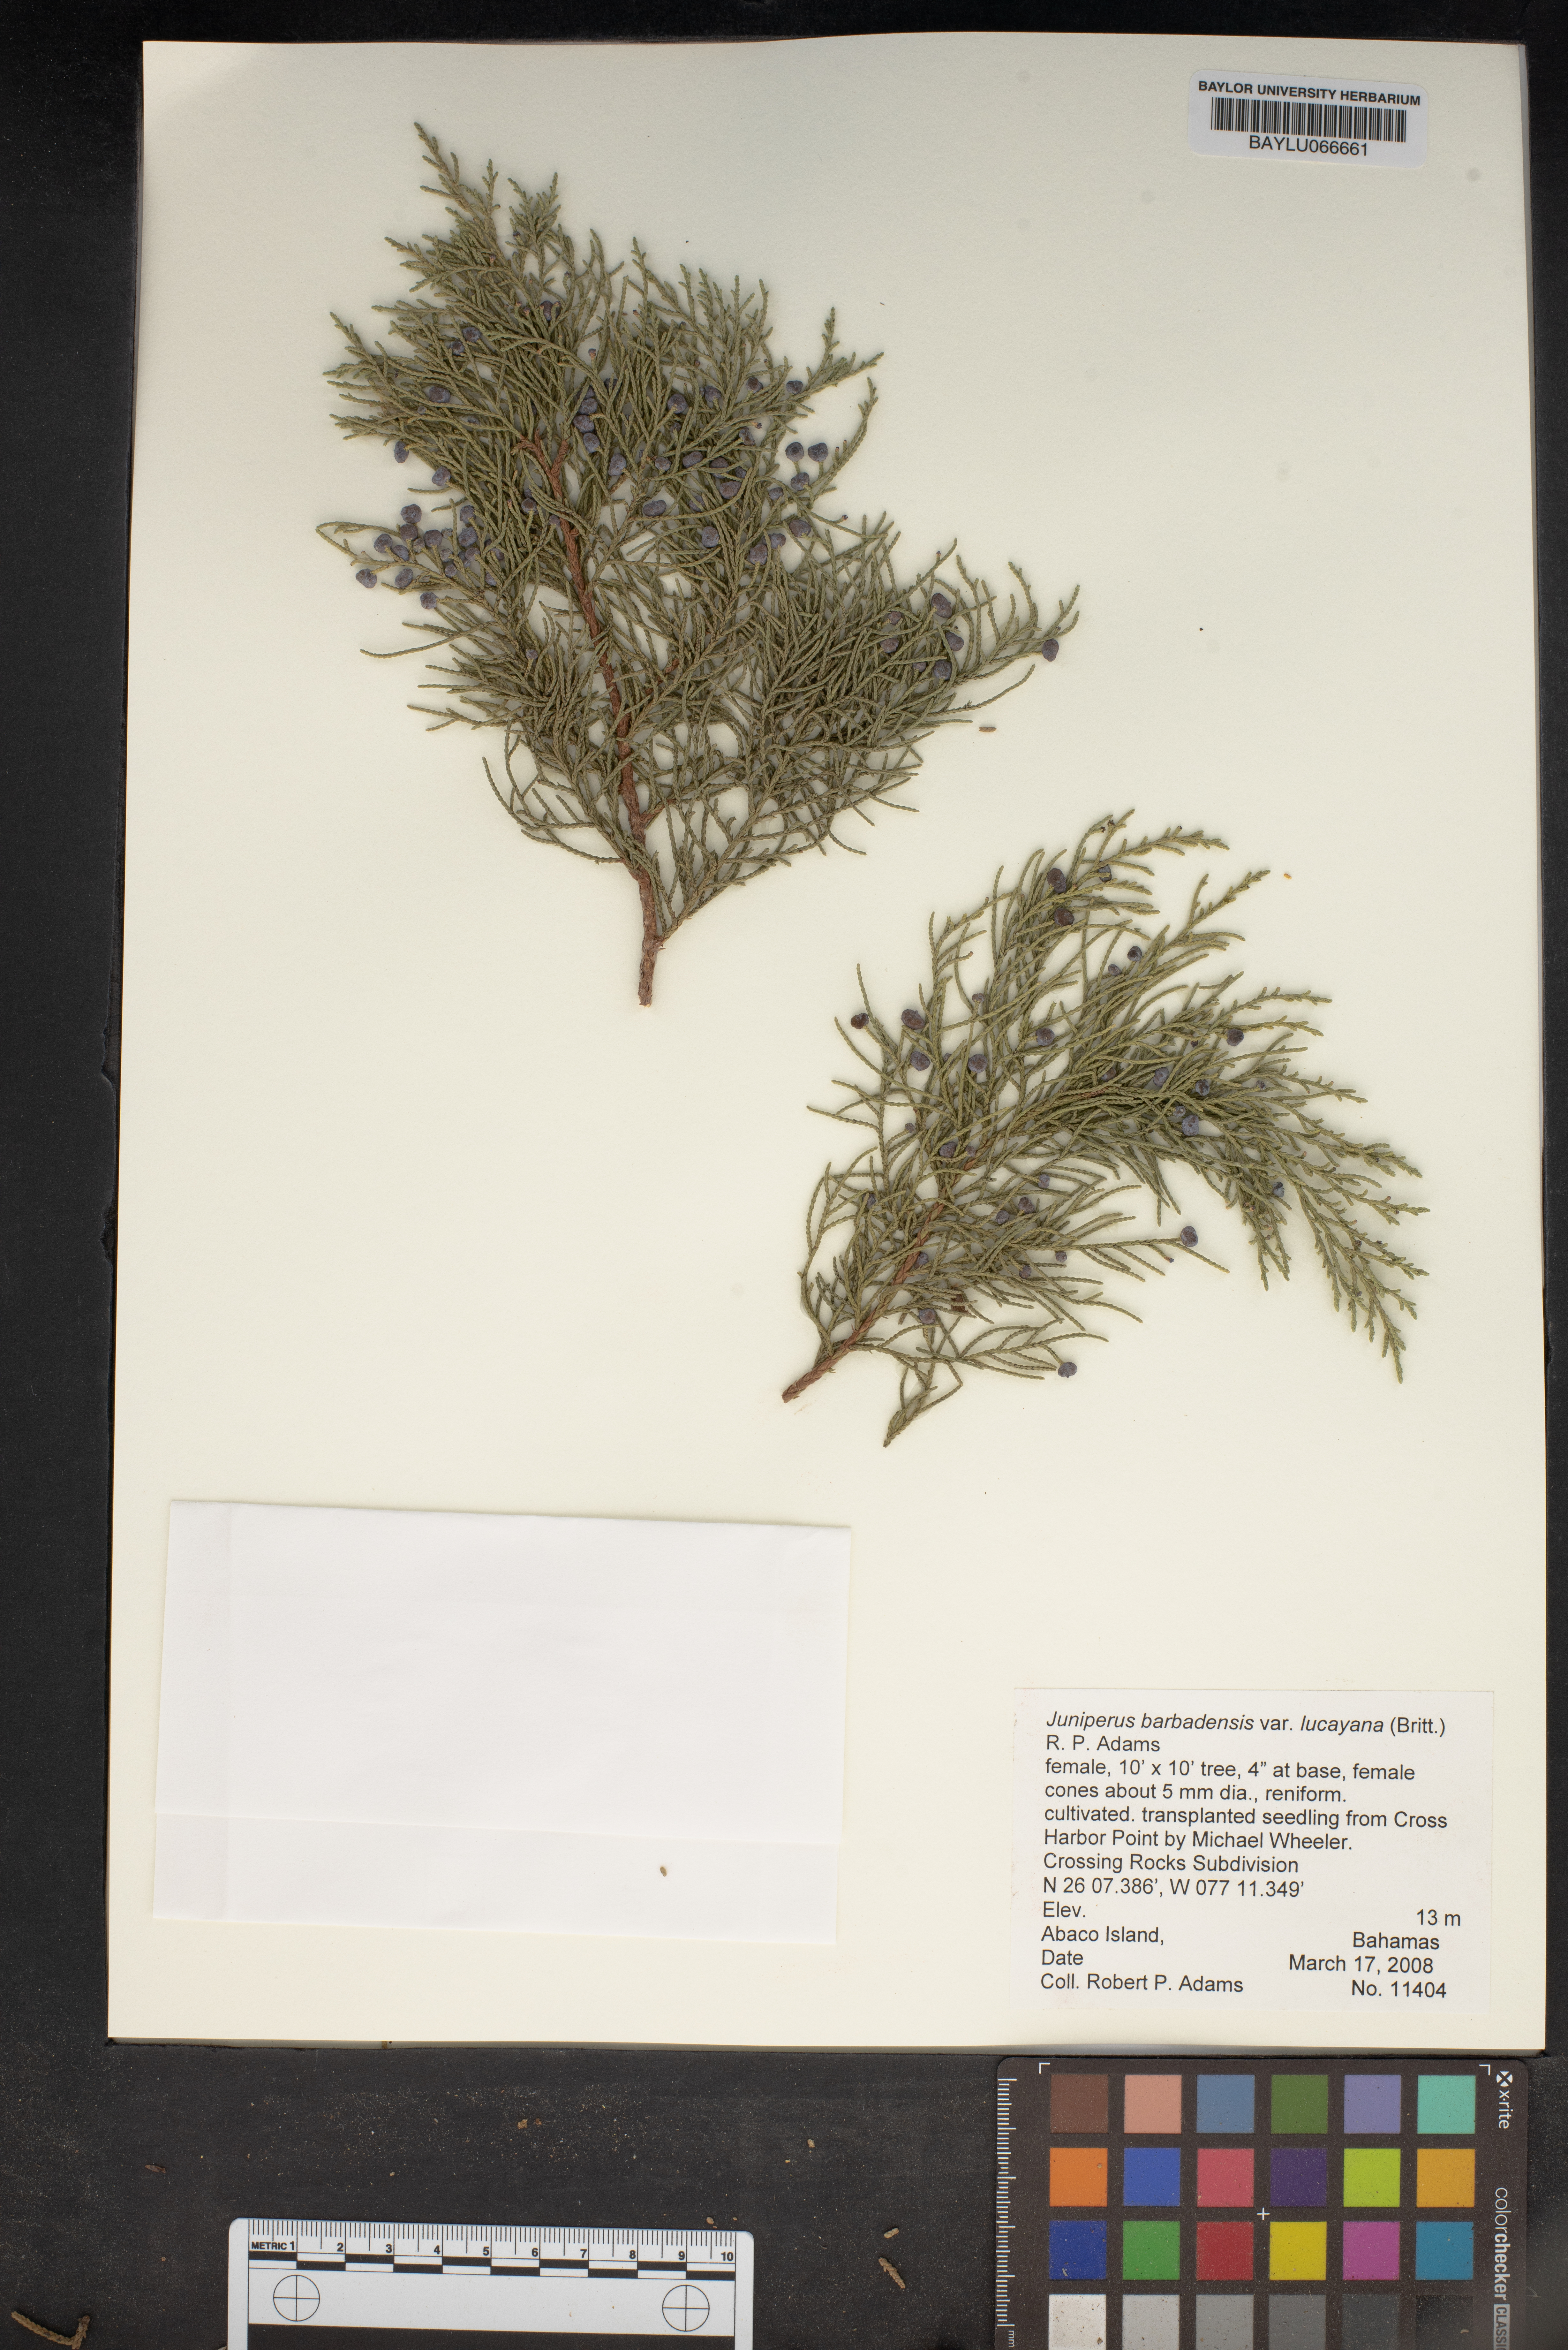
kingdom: Plantae
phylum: Tracheophyta
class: Pinopsida
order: Pinales
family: Cupressaceae
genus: Juniperus
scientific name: Juniperus barbadensis
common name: West indies juniper
